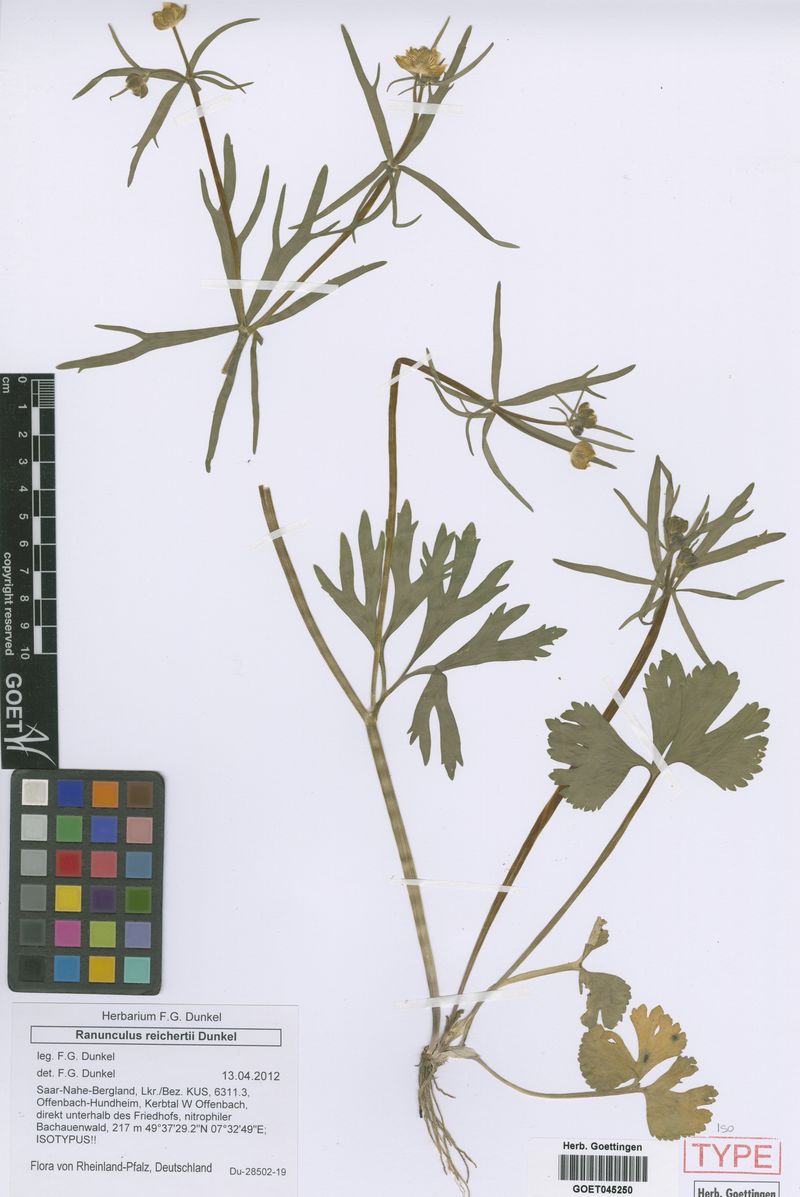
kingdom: Plantae
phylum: Tracheophyta
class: Magnoliopsida
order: Ranunculales
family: Ranunculaceae
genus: Ranunculus
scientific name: Ranunculus reichertii
